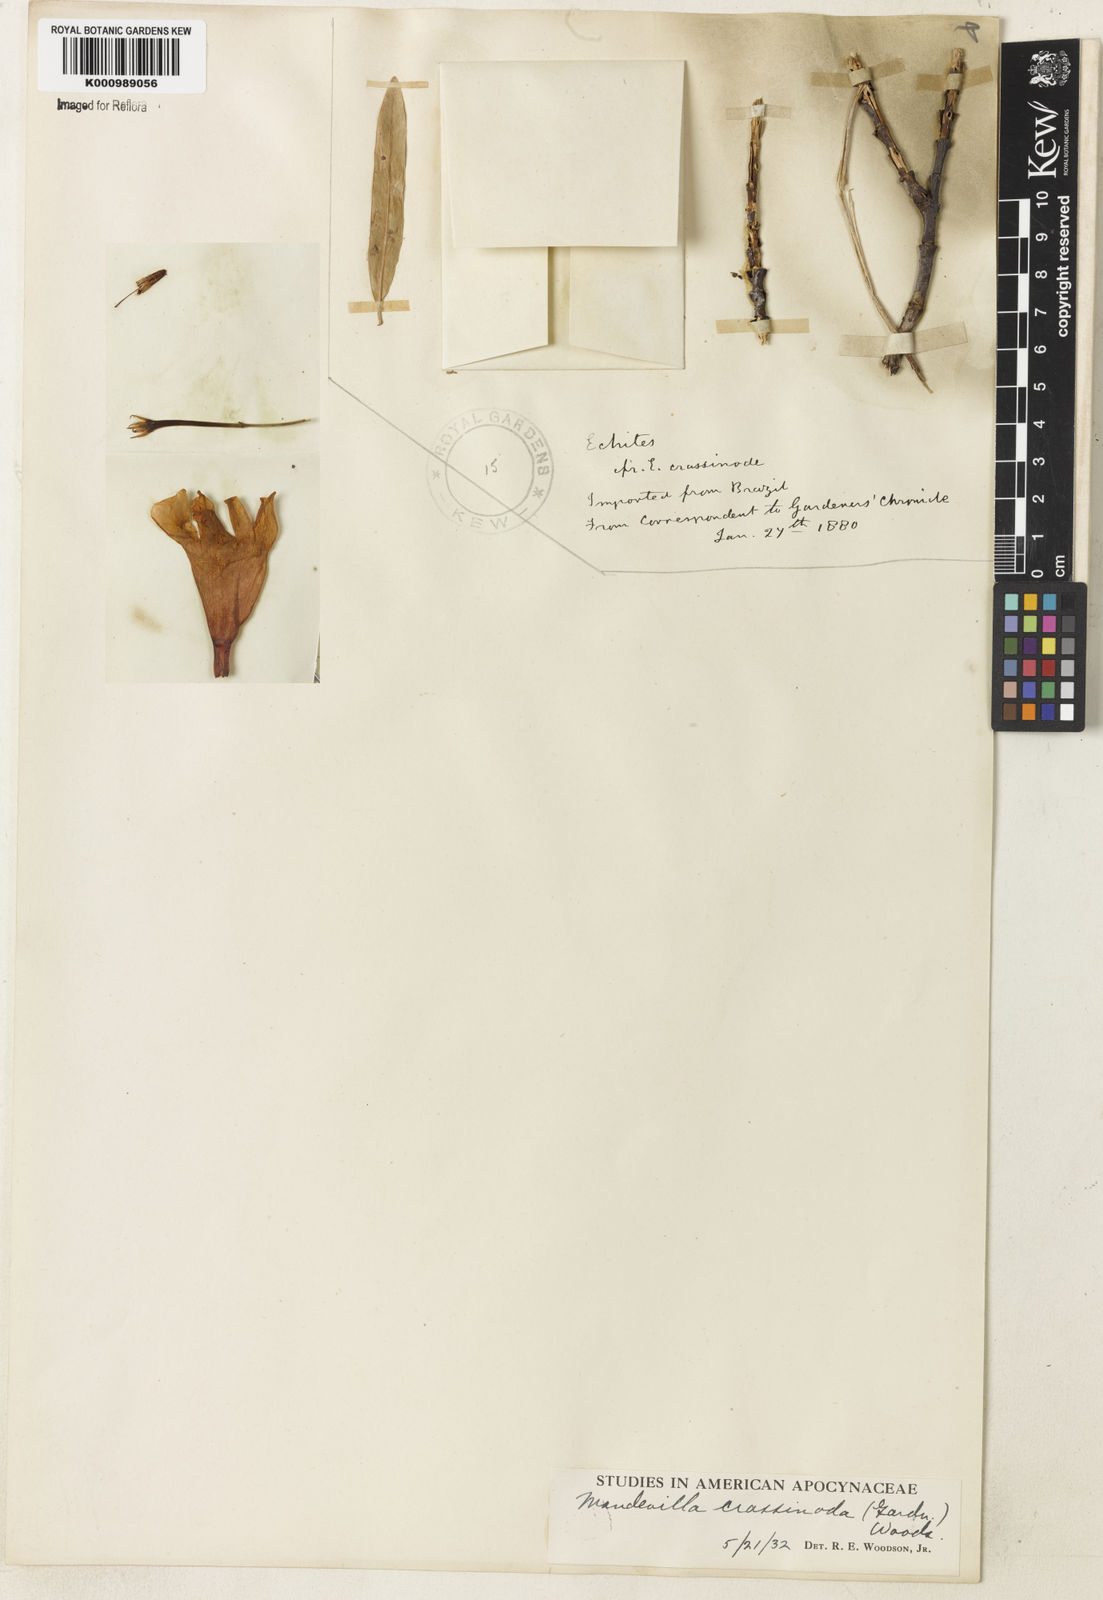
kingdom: Plantae
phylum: Tracheophyta
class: Magnoliopsida
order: Gentianales
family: Apocynaceae
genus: Mandevilla
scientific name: Mandevilla crassinoda
